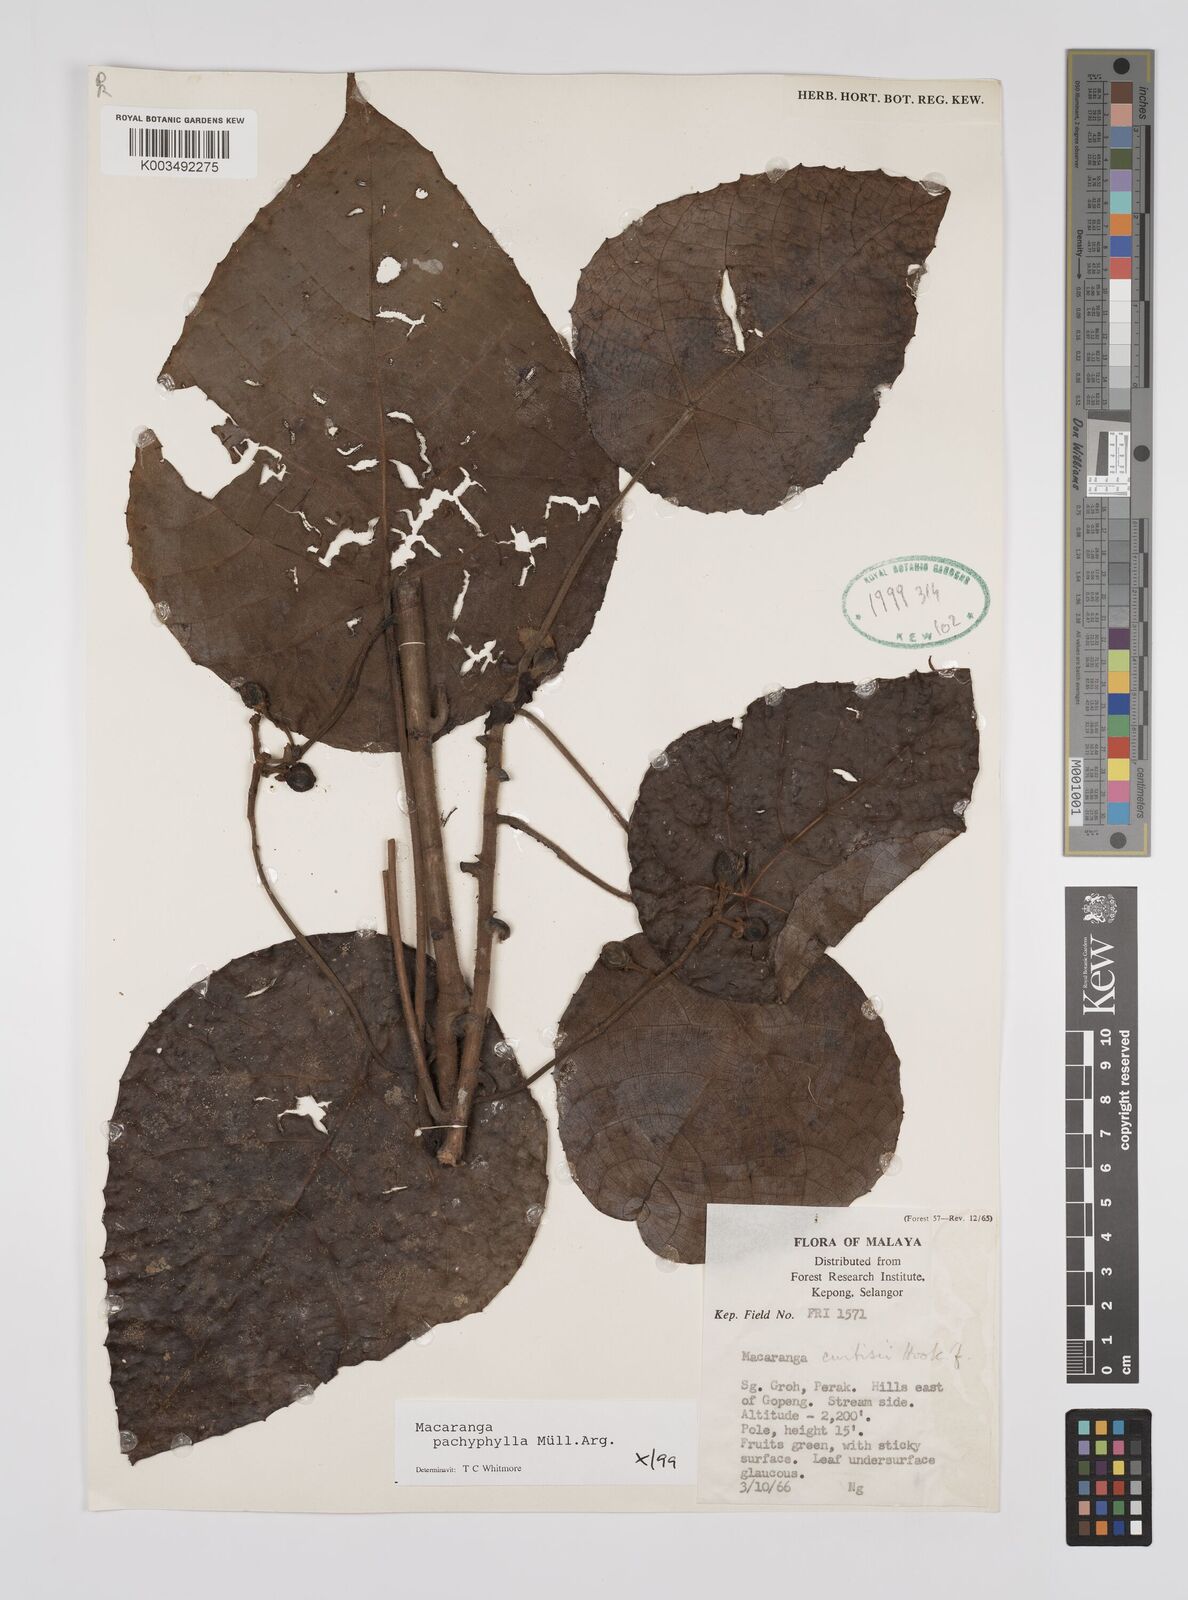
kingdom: Plantae
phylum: Tracheophyta
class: Magnoliopsida
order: Malpighiales
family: Euphorbiaceae
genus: Macaranga
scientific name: Macaranga pachyphylla
